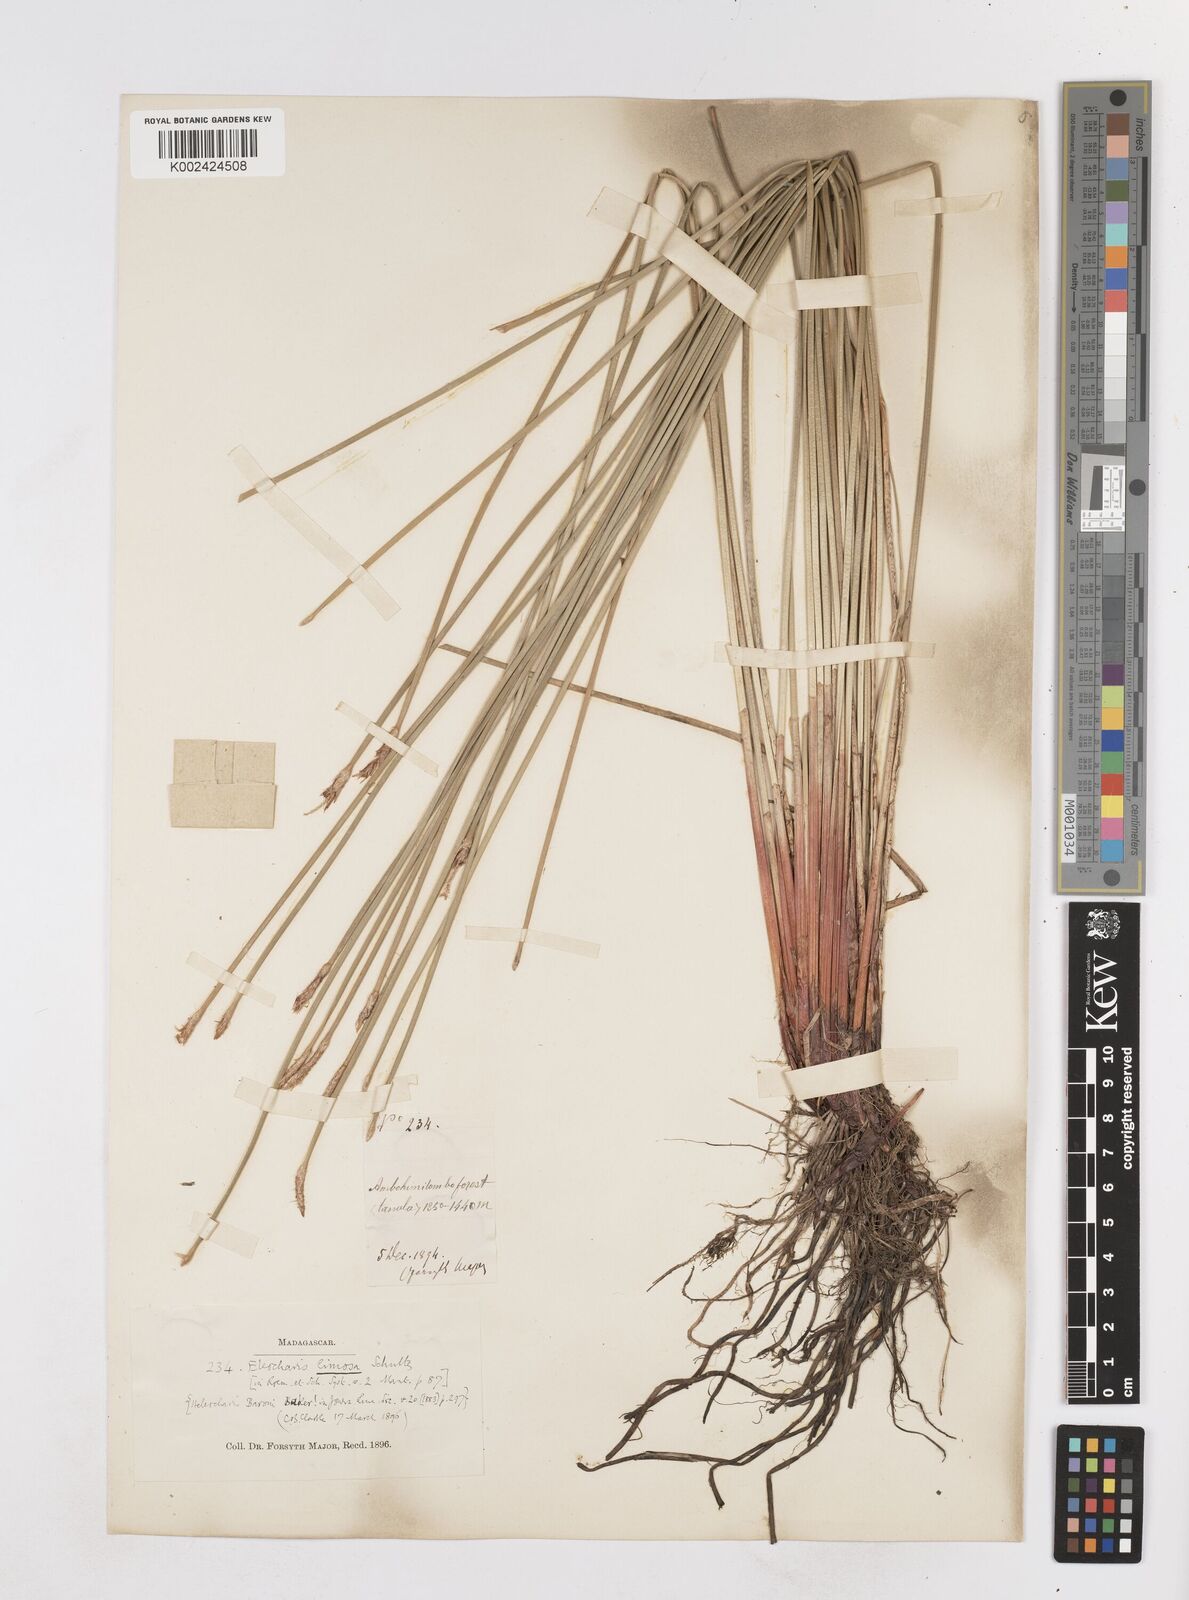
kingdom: Plantae
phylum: Tracheophyta
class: Liliopsida
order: Poales
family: Cyperaceae
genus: Eleocharis
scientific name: Eleocharis limosa
